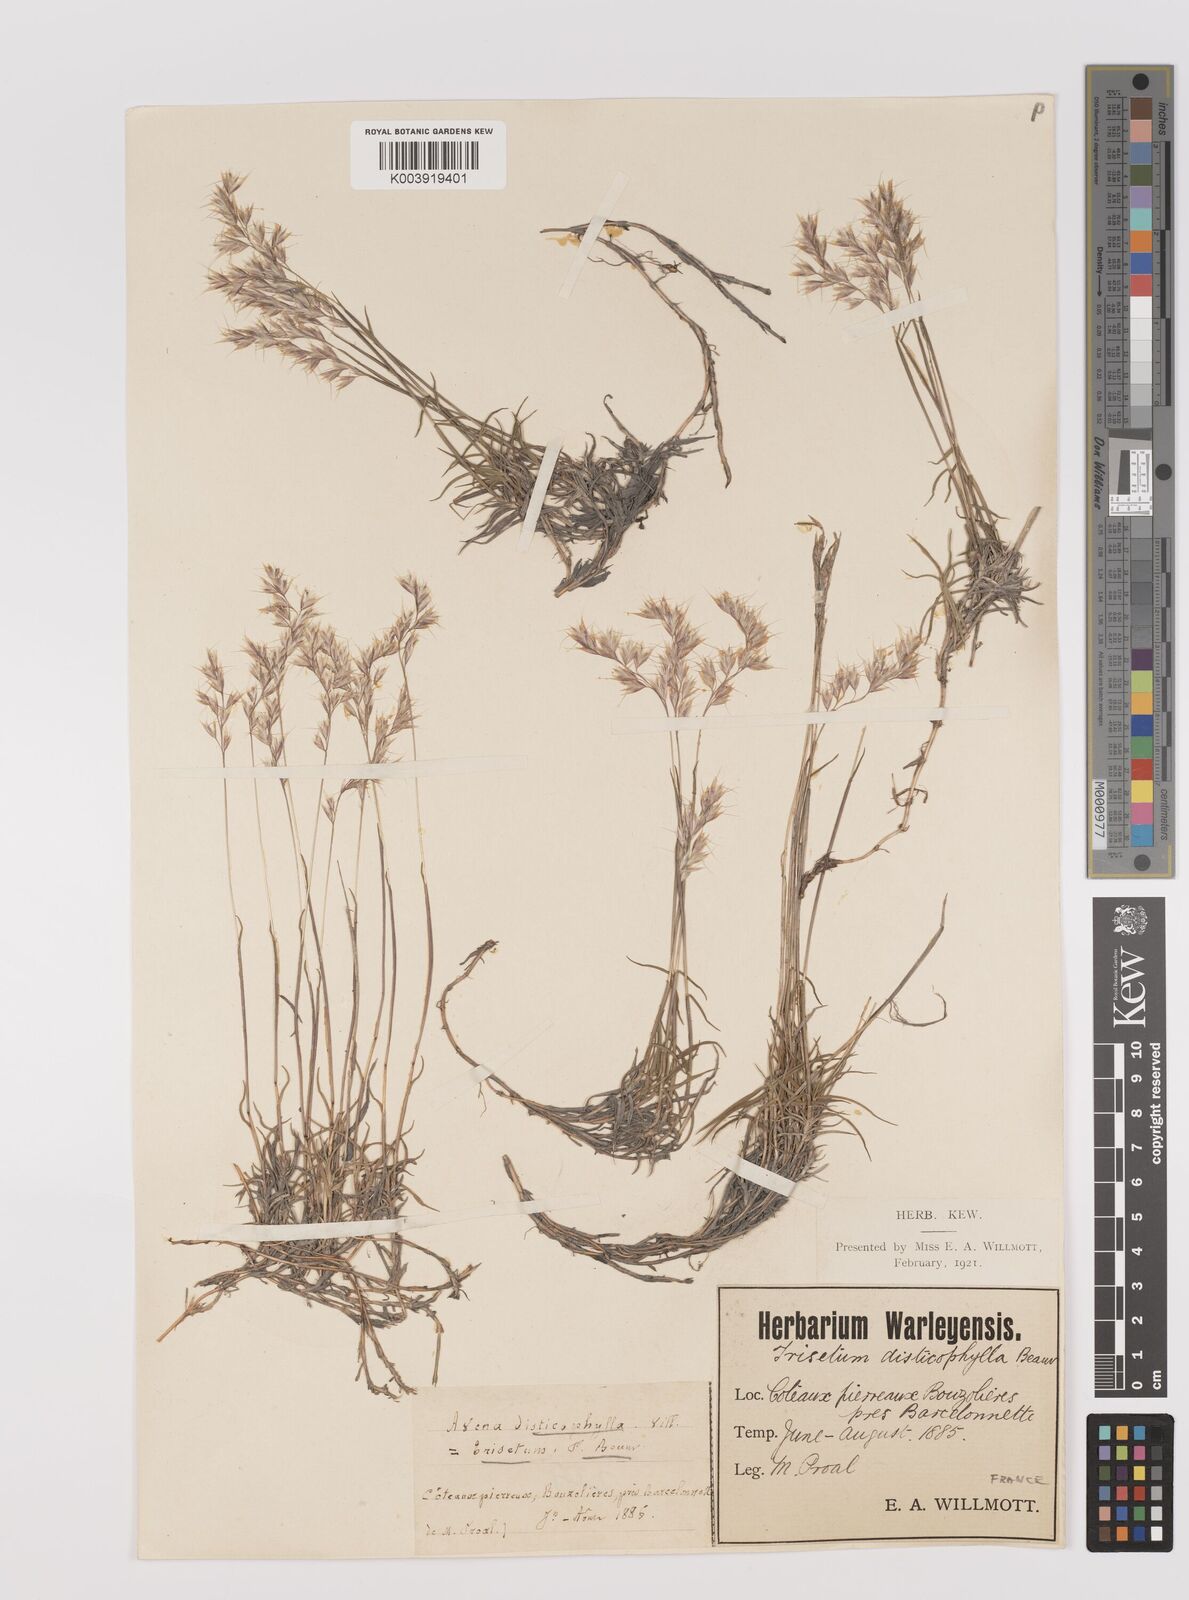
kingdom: Plantae
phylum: Tracheophyta
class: Liliopsida
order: Poales
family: Poaceae
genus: Acrospelion
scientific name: Acrospelion distichophyllum
